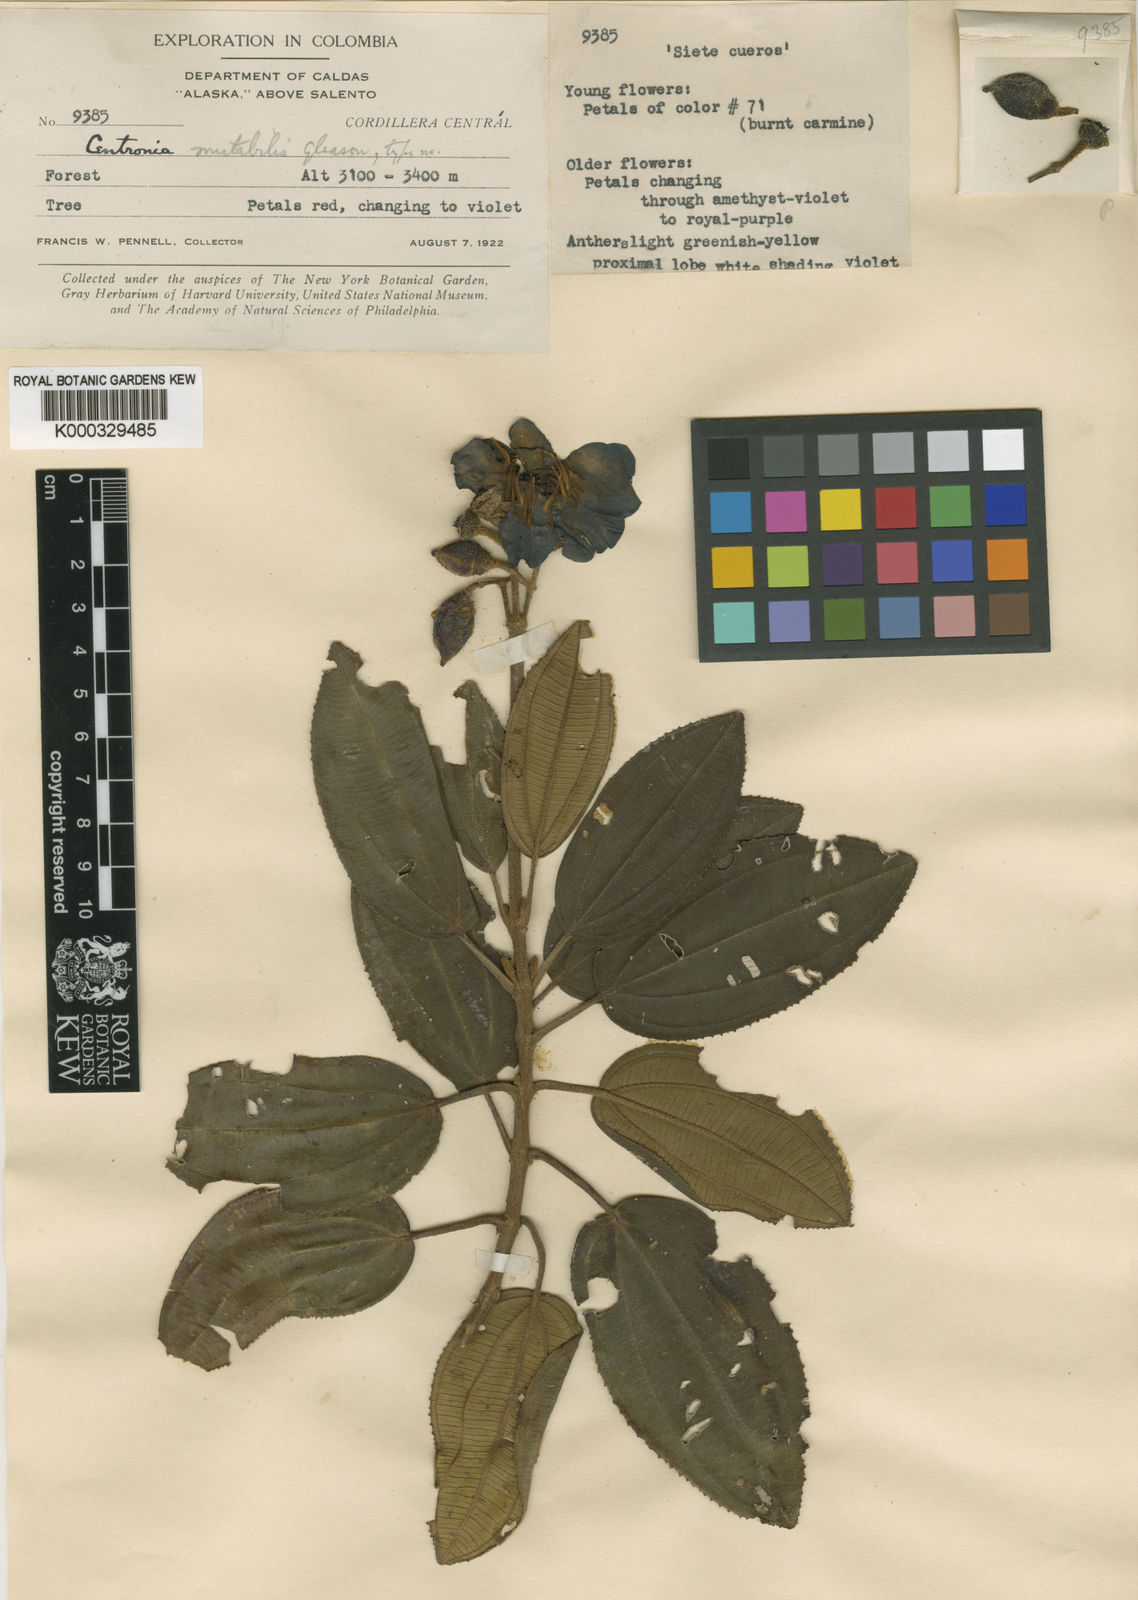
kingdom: Plantae
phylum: Tracheophyta
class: Magnoliopsida
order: Myrtales
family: Melastomataceae
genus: Meriania
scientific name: Meriania mutabilis
